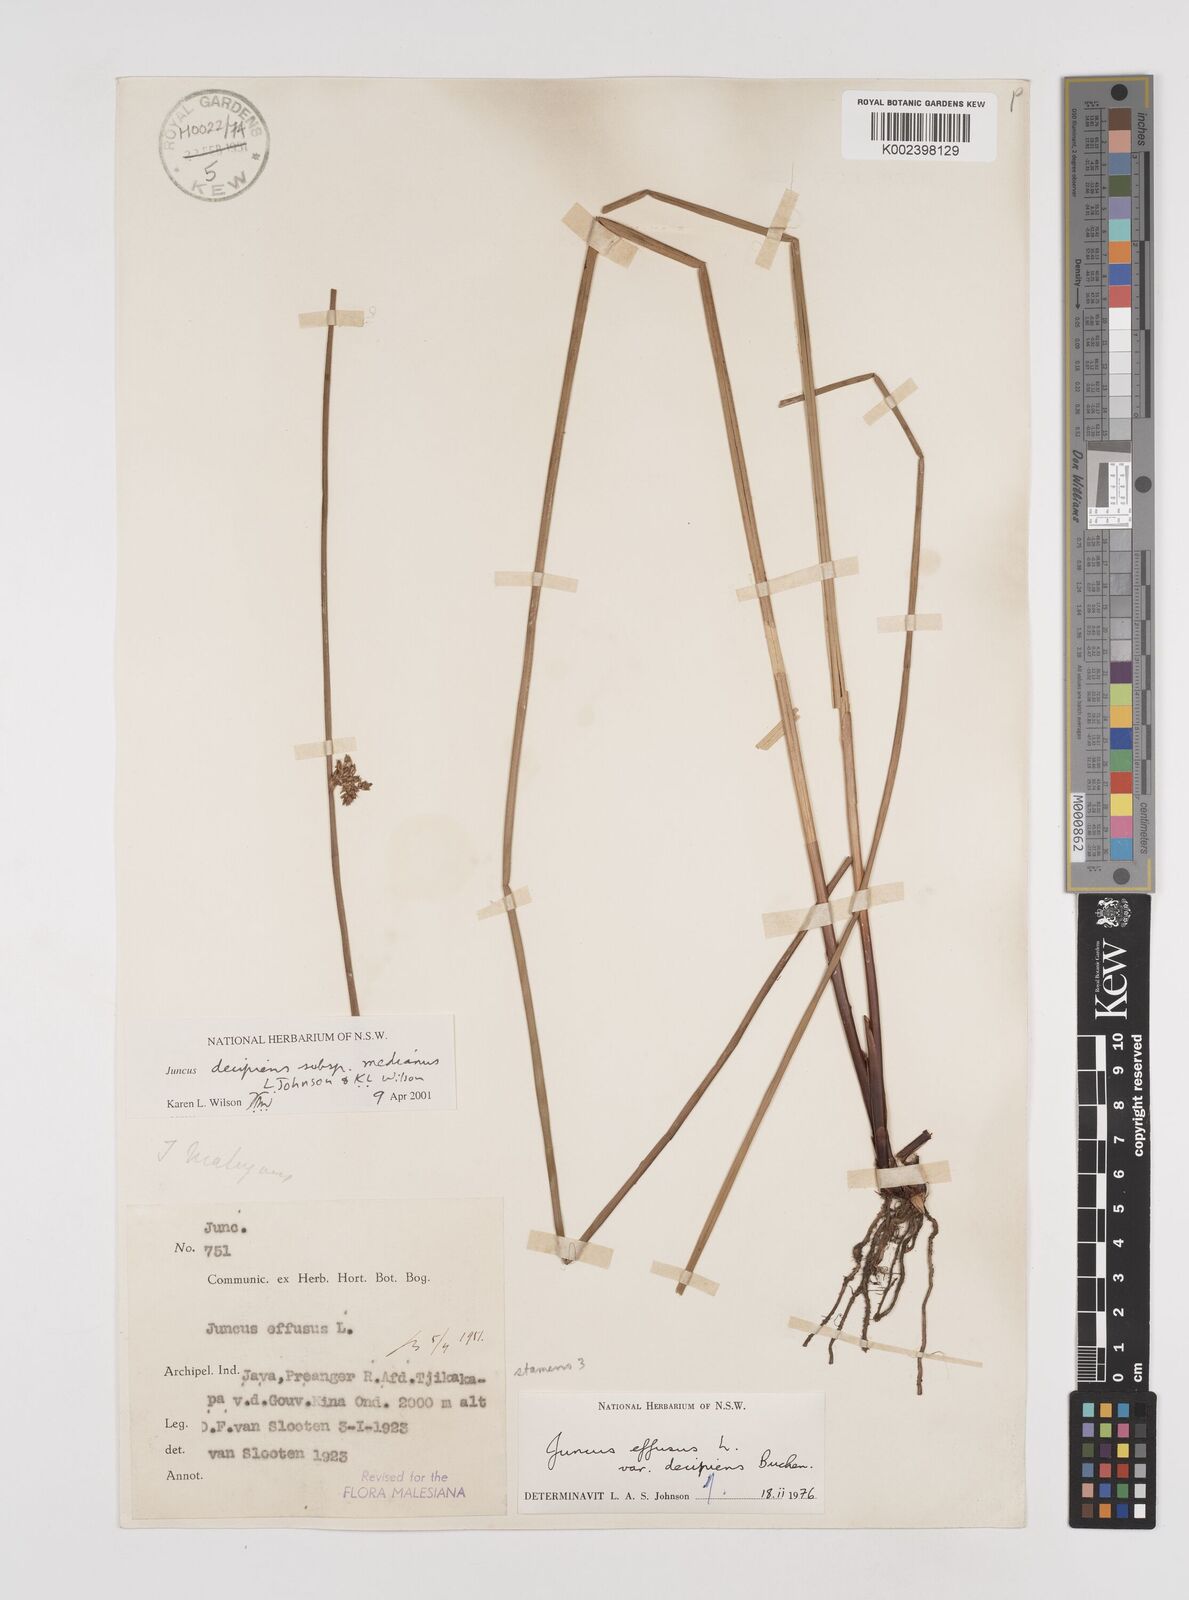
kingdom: Plantae
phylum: Tracheophyta
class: Liliopsida
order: Poales
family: Juncaceae
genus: Juncus
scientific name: Juncus decipiens
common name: Lamp rush
